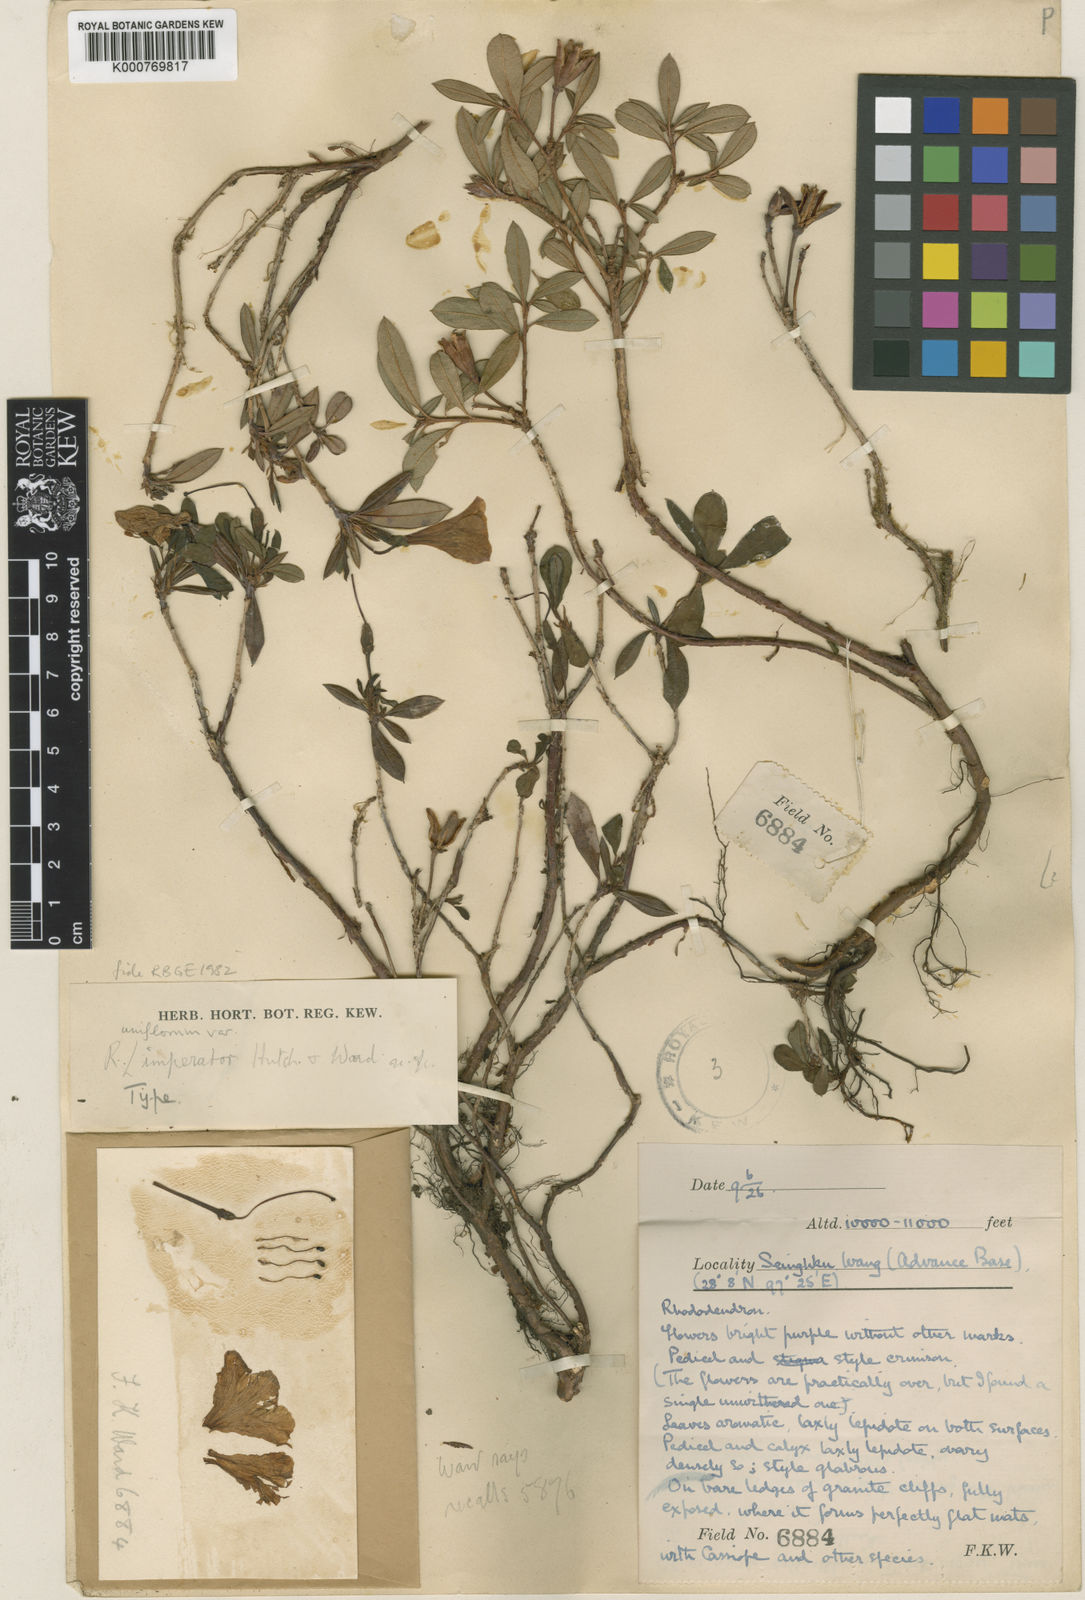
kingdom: Plantae
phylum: Tracheophyta
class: Magnoliopsida
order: Ericales
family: Ericaceae
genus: Rhododendron
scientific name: Rhododendron uniflorum
